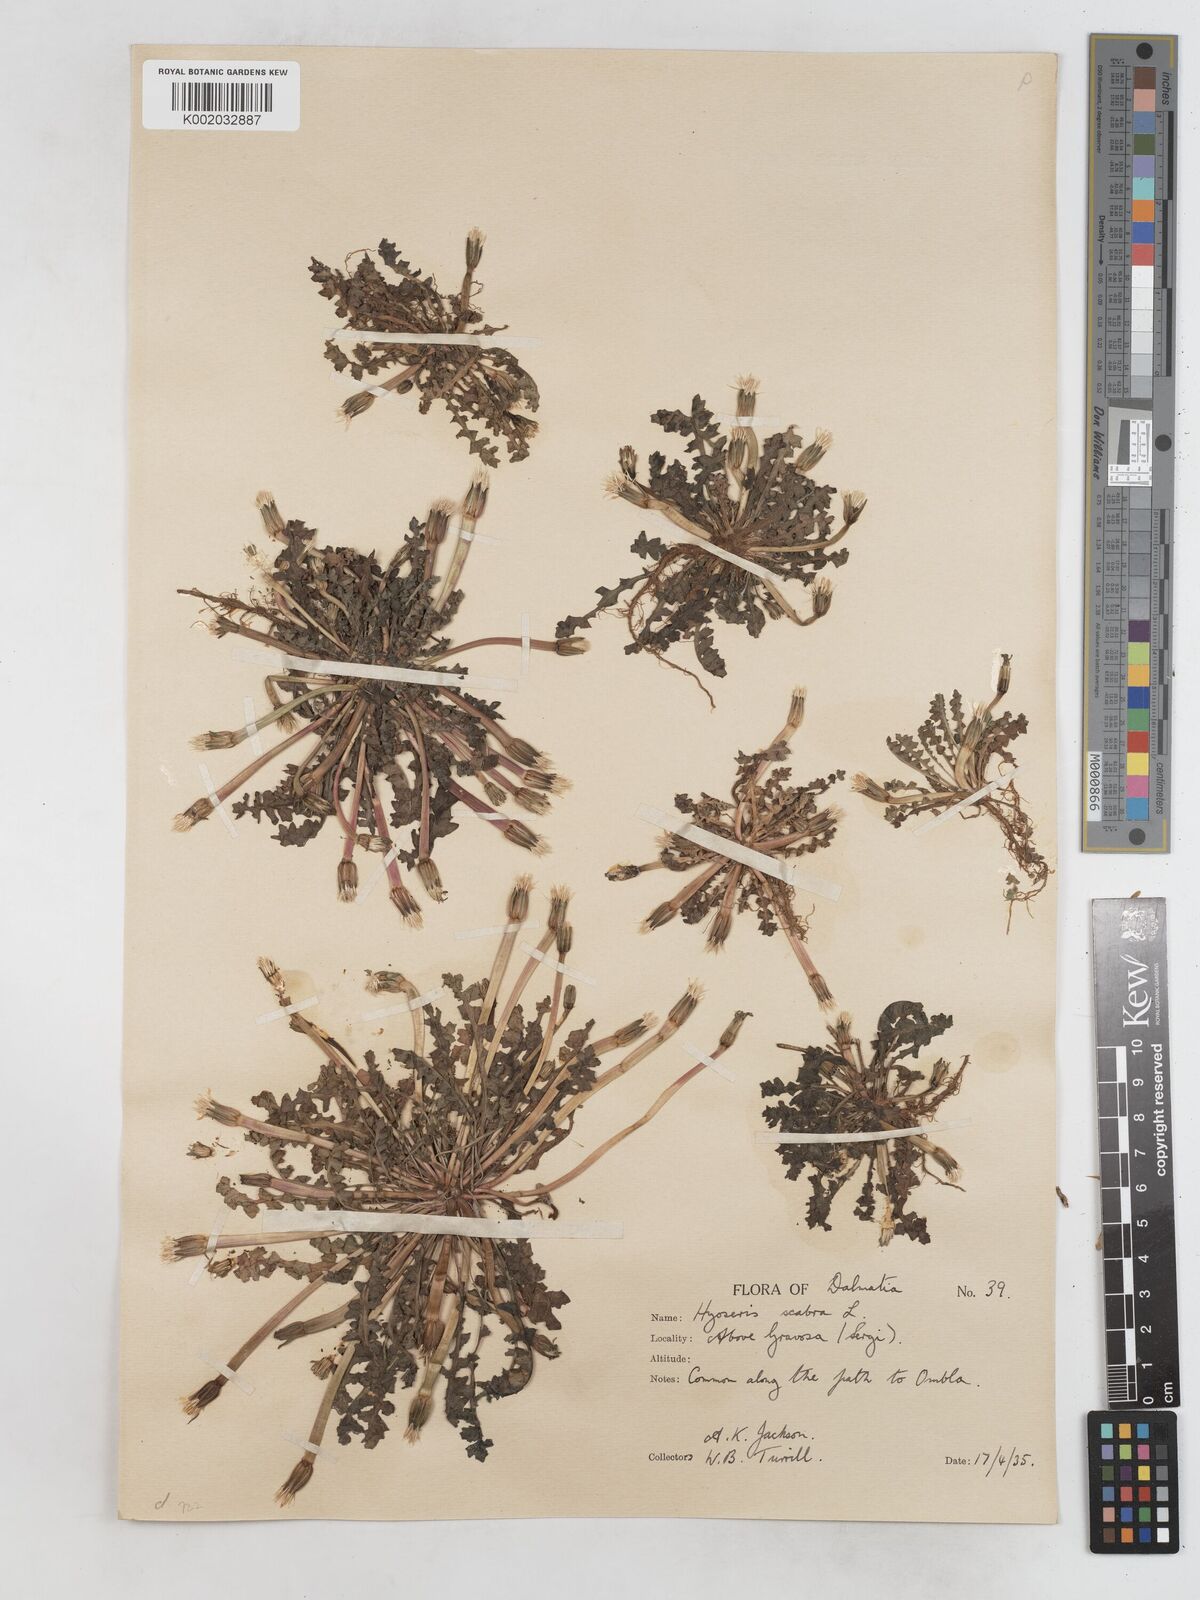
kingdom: Plantae
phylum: Tracheophyta
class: Magnoliopsida
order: Asterales
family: Asteraceae
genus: Hyoseris
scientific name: Hyoseris scabra
